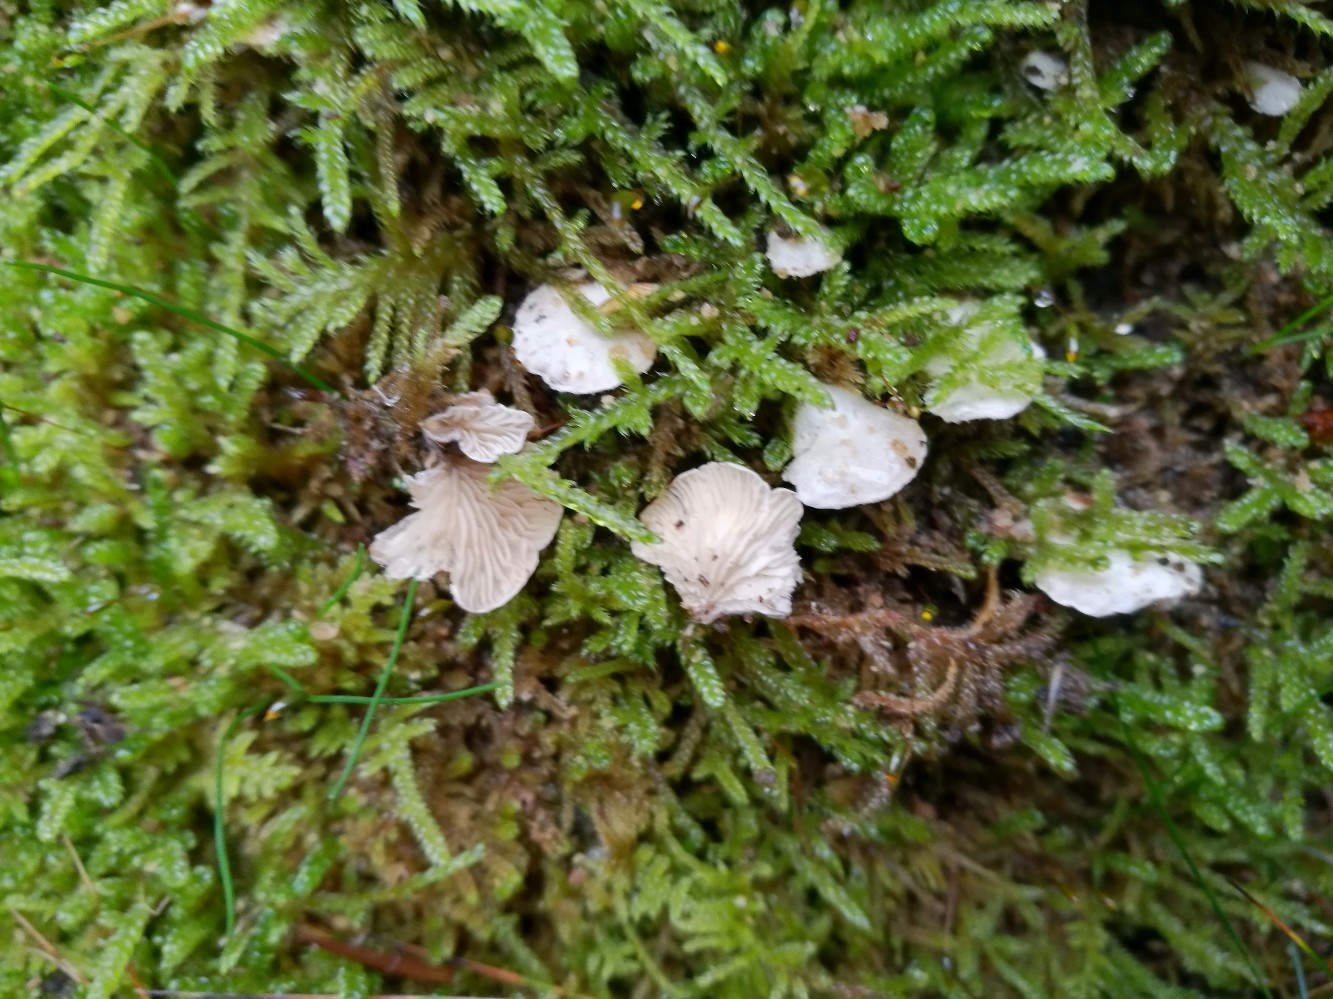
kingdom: Fungi
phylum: Basidiomycota
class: Agaricomycetes
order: Agaricales
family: Entolomataceae
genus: Clitopilus
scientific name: Clitopilus hobsonii
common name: Miller's oysterling
